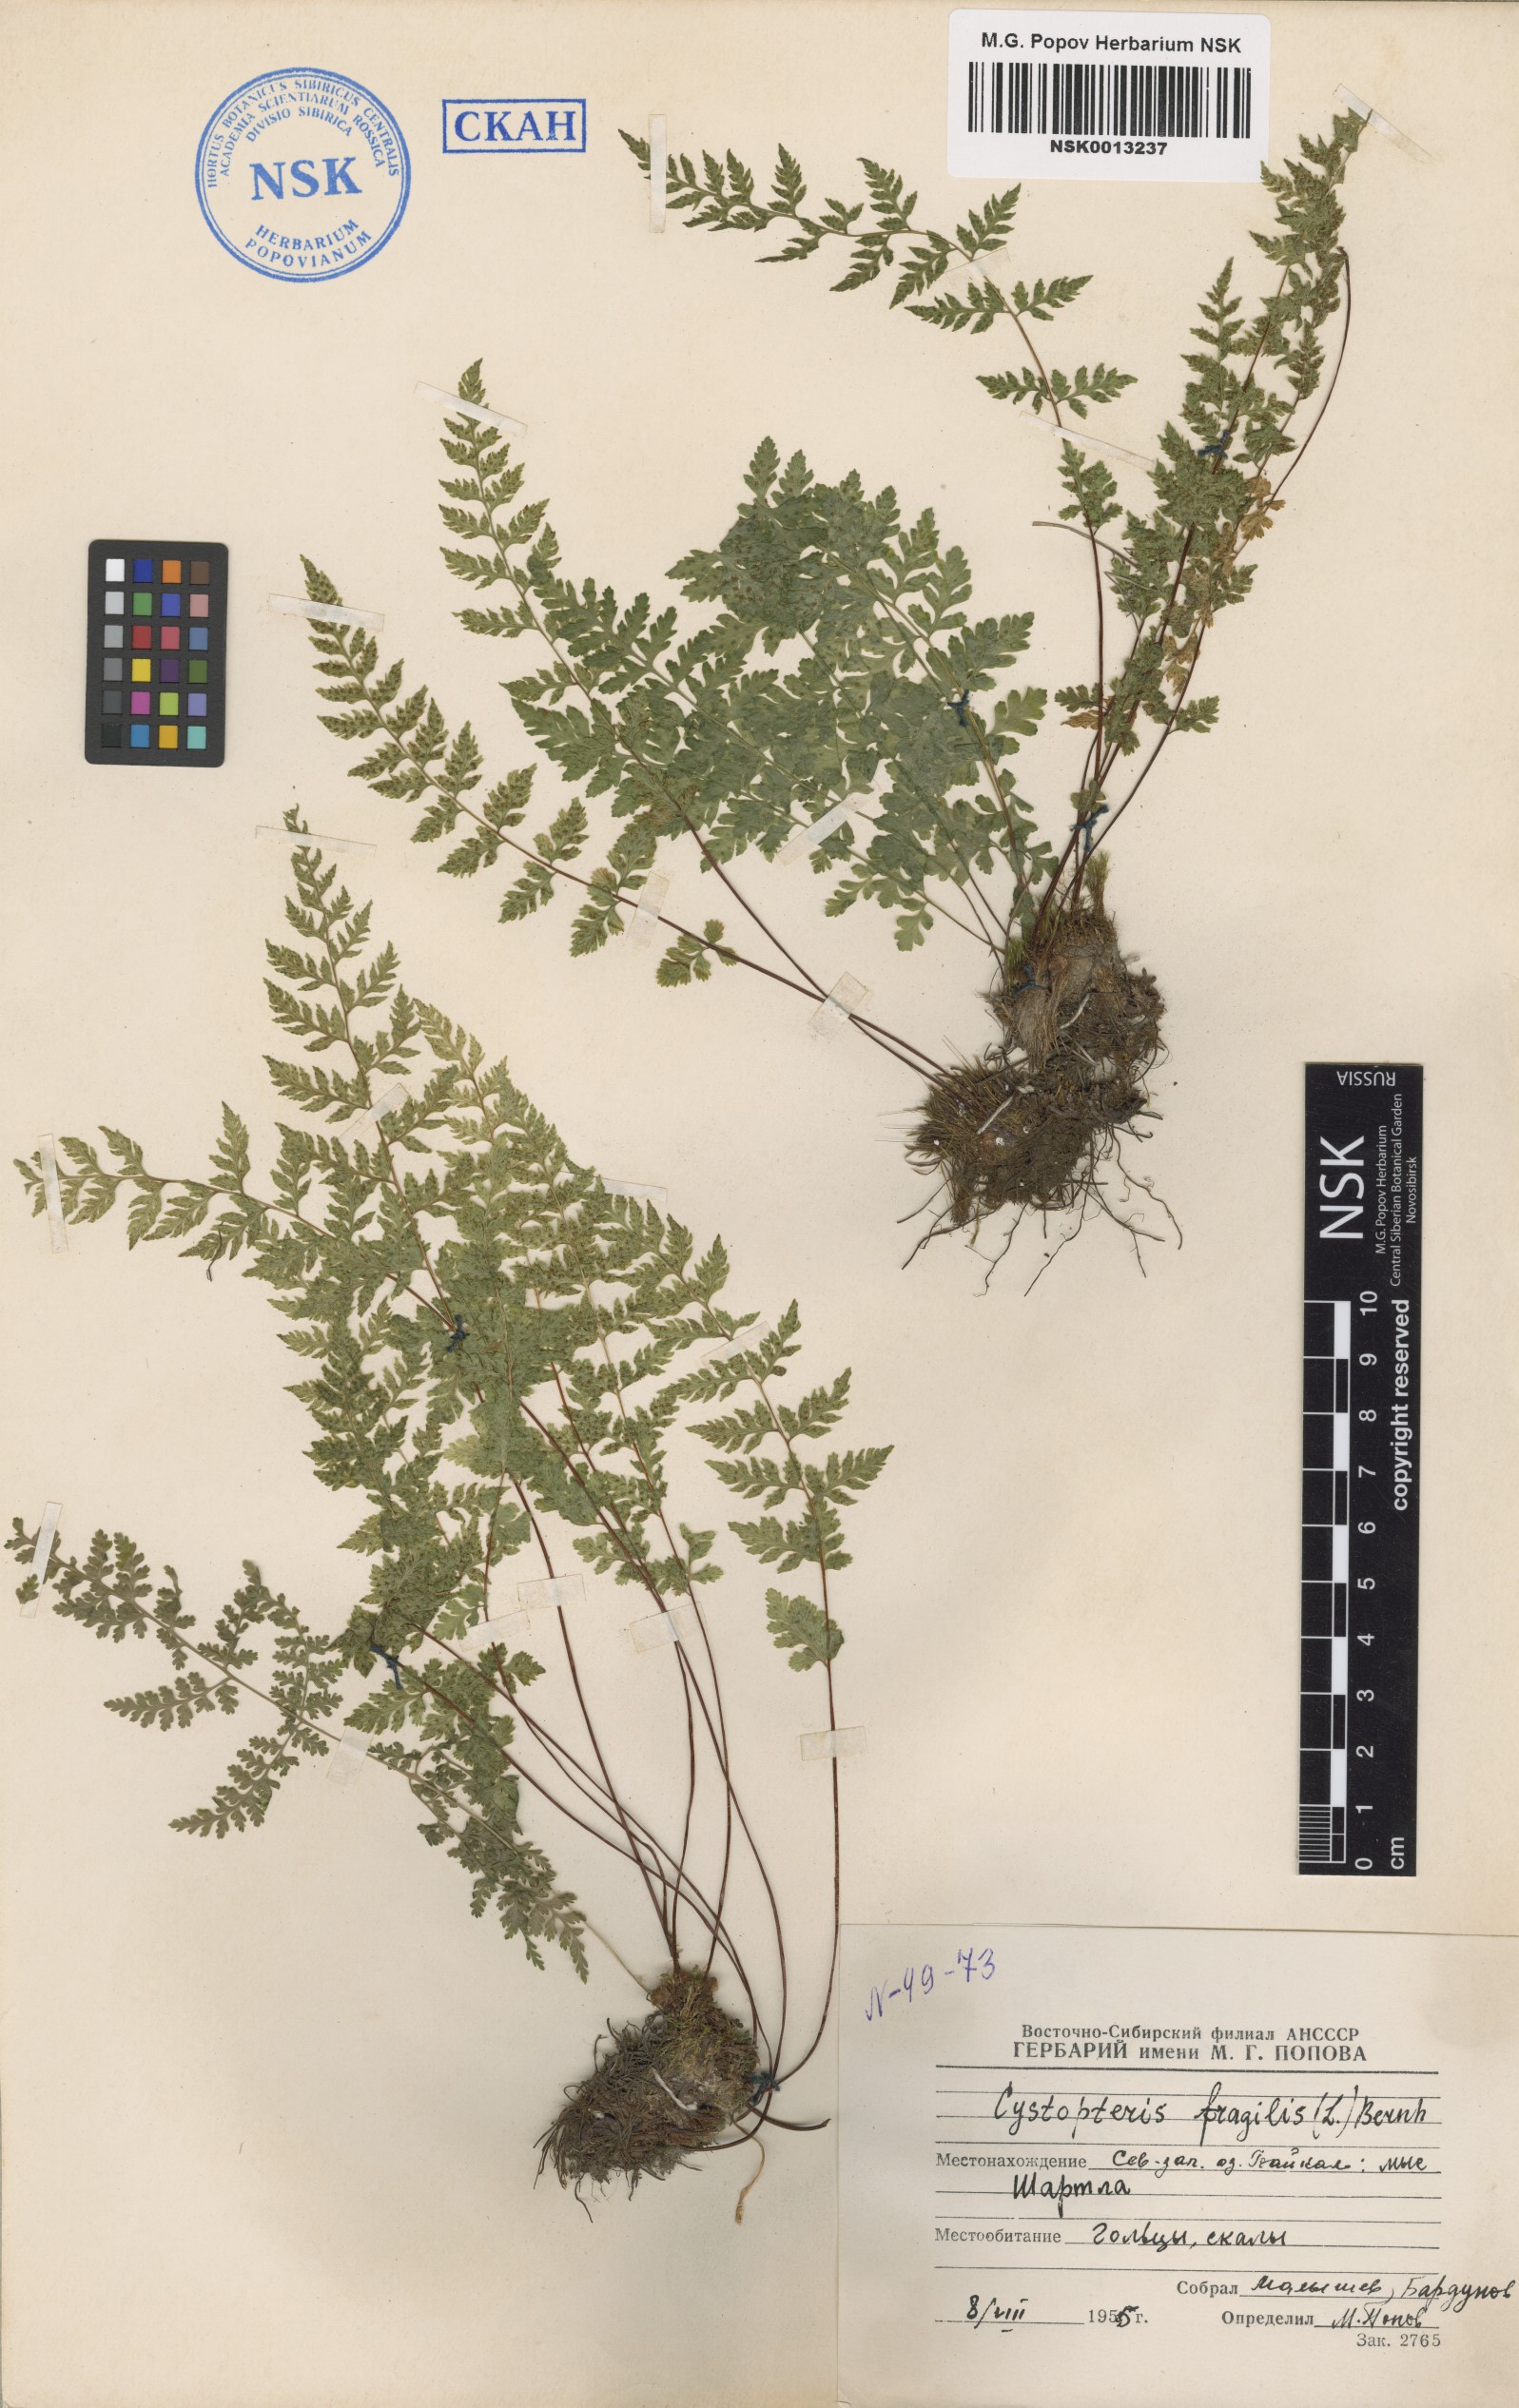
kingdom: Plantae
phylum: Tracheophyta
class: Polypodiopsida
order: Polypodiales
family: Cystopteridaceae
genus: Cystopteris
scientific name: Cystopteris fragilis
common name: Brittle bladder fern
